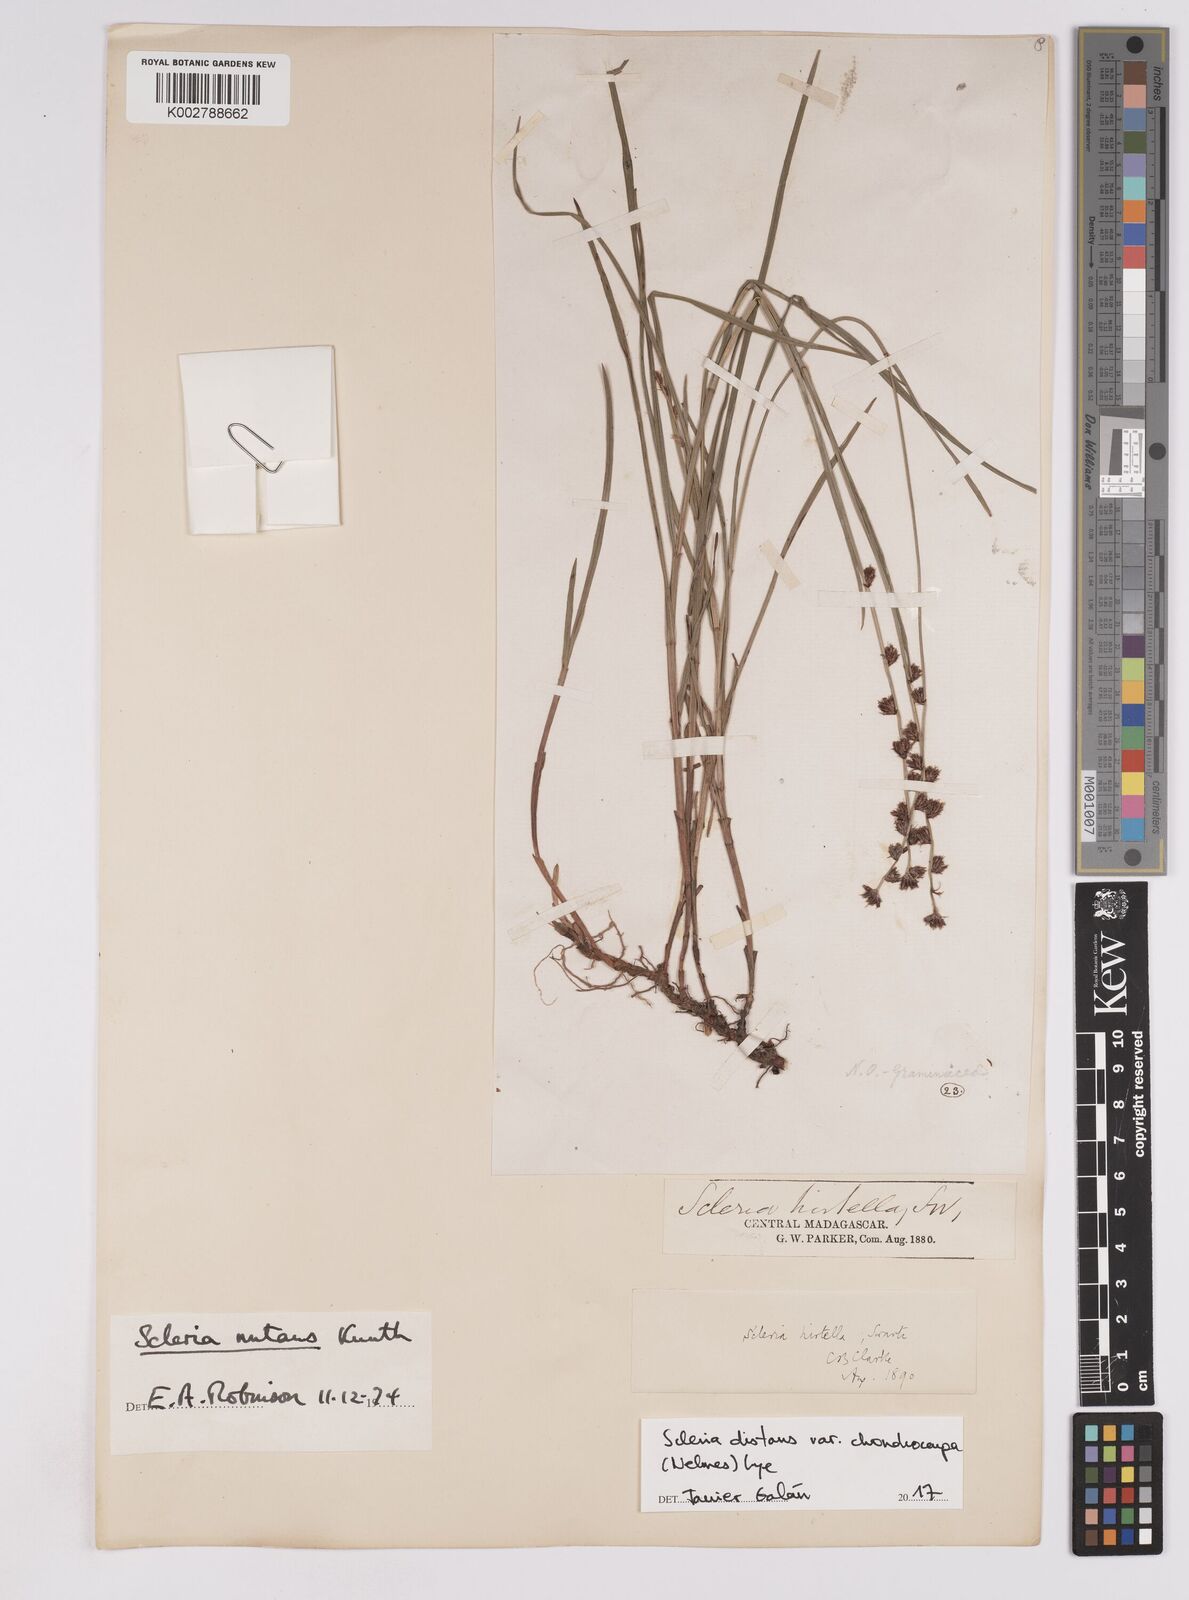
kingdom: Plantae
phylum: Tracheophyta
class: Liliopsida
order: Poales
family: Cyperaceae
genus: Scleria
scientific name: Scleria distans
